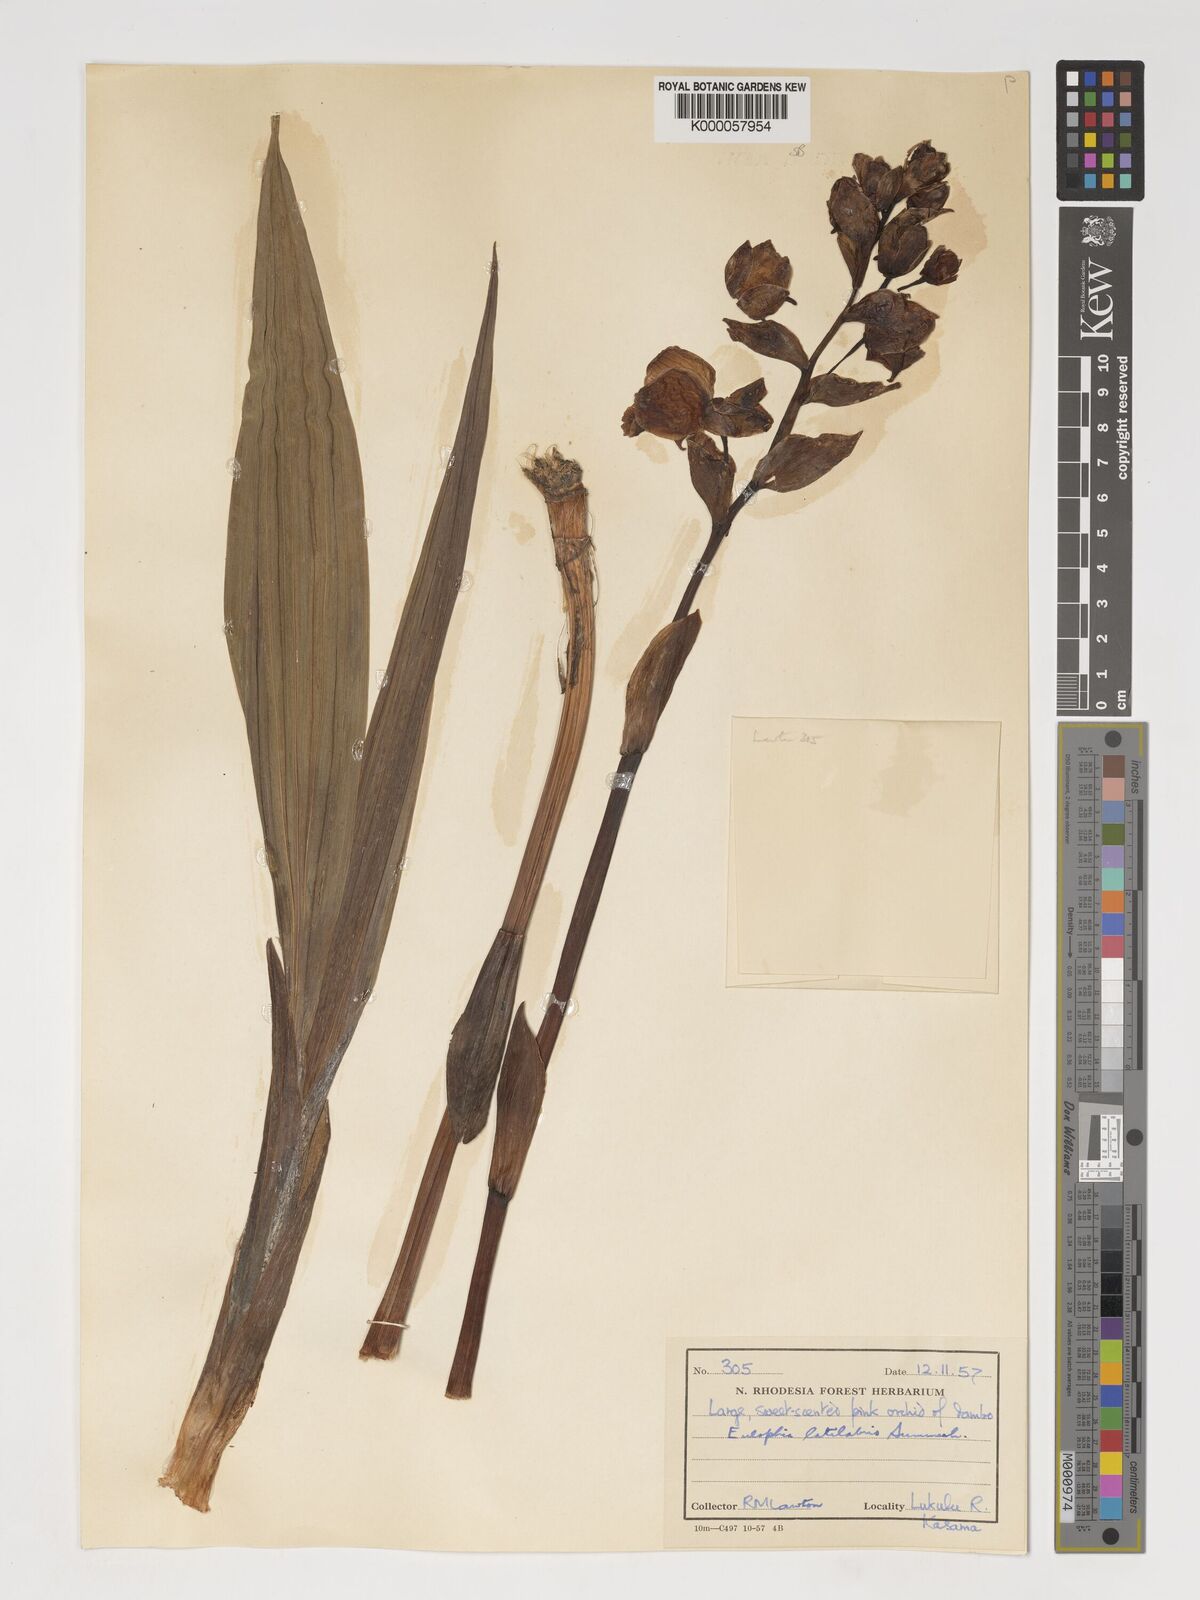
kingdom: Plantae
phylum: Tracheophyta
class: Liliopsida
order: Asparagales
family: Orchidaceae
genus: Eulophia
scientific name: Eulophia latilabris
